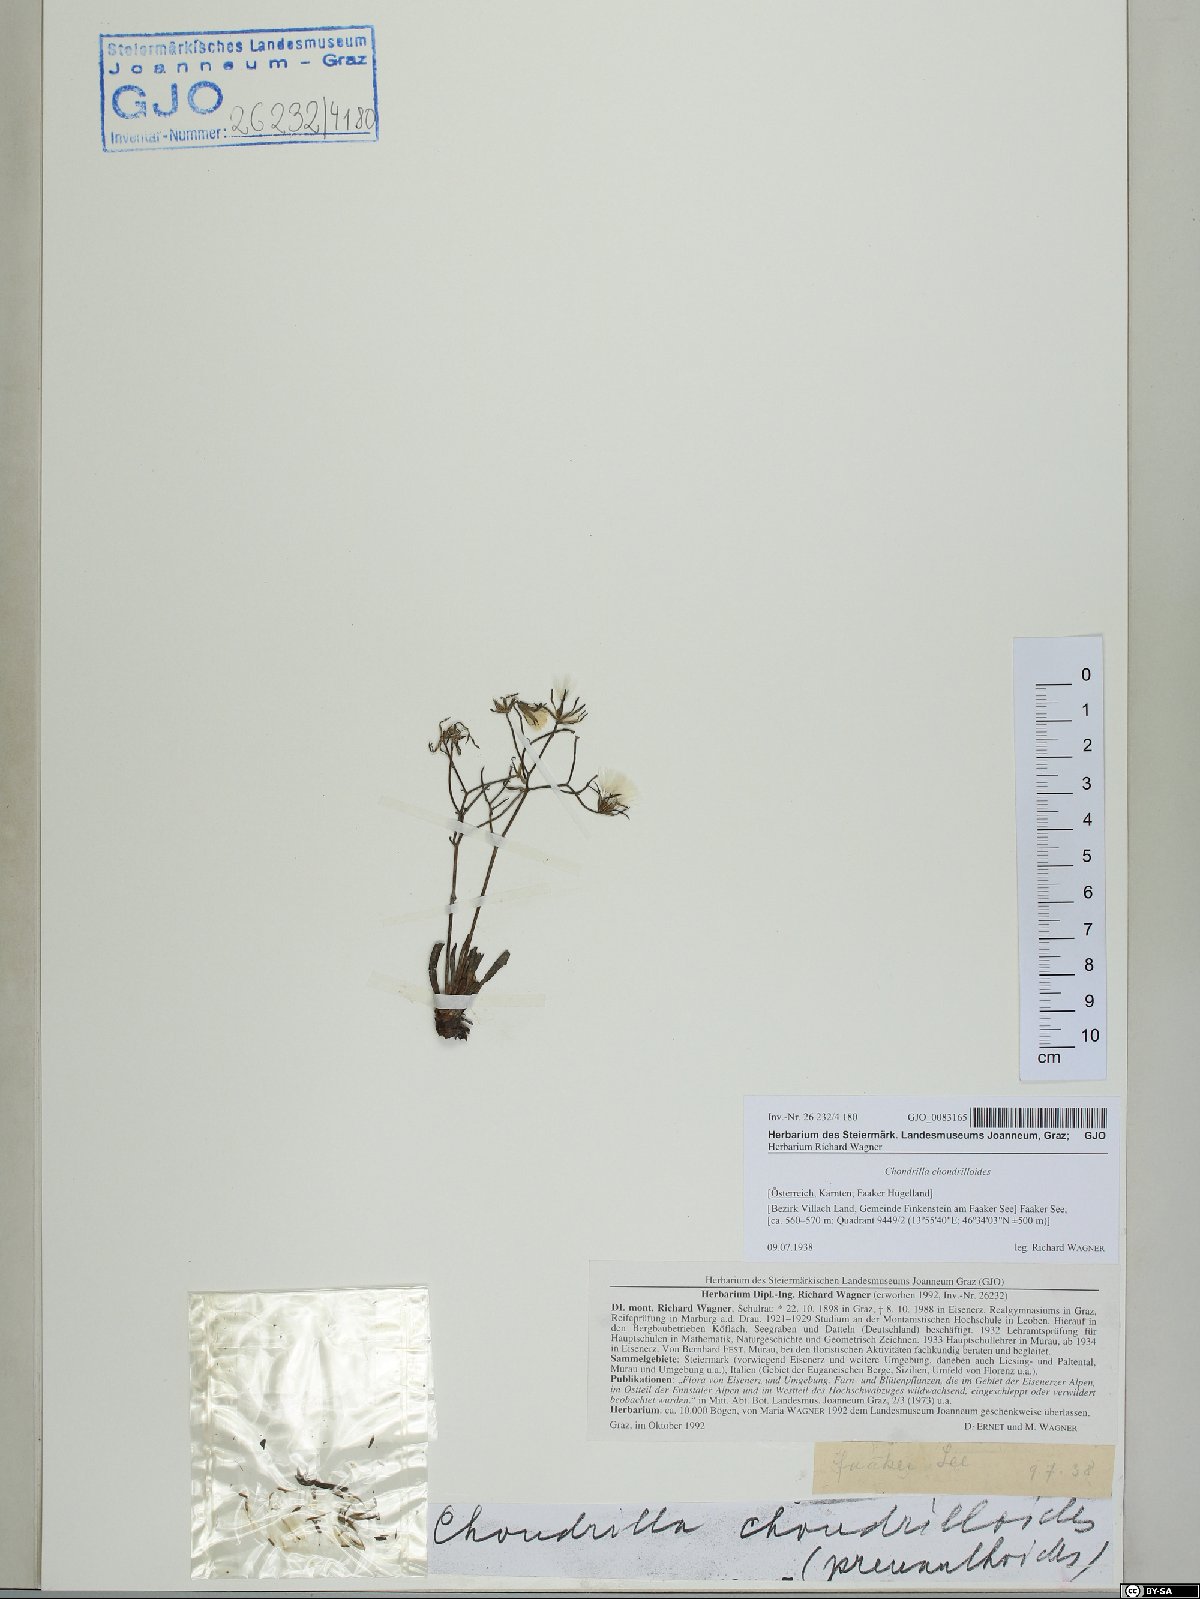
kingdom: Plantae
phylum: Tracheophyta
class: Magnoliopsida
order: Asterales
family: Asteraceae
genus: Chondrilla
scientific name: Chondrilla chondrilloides
